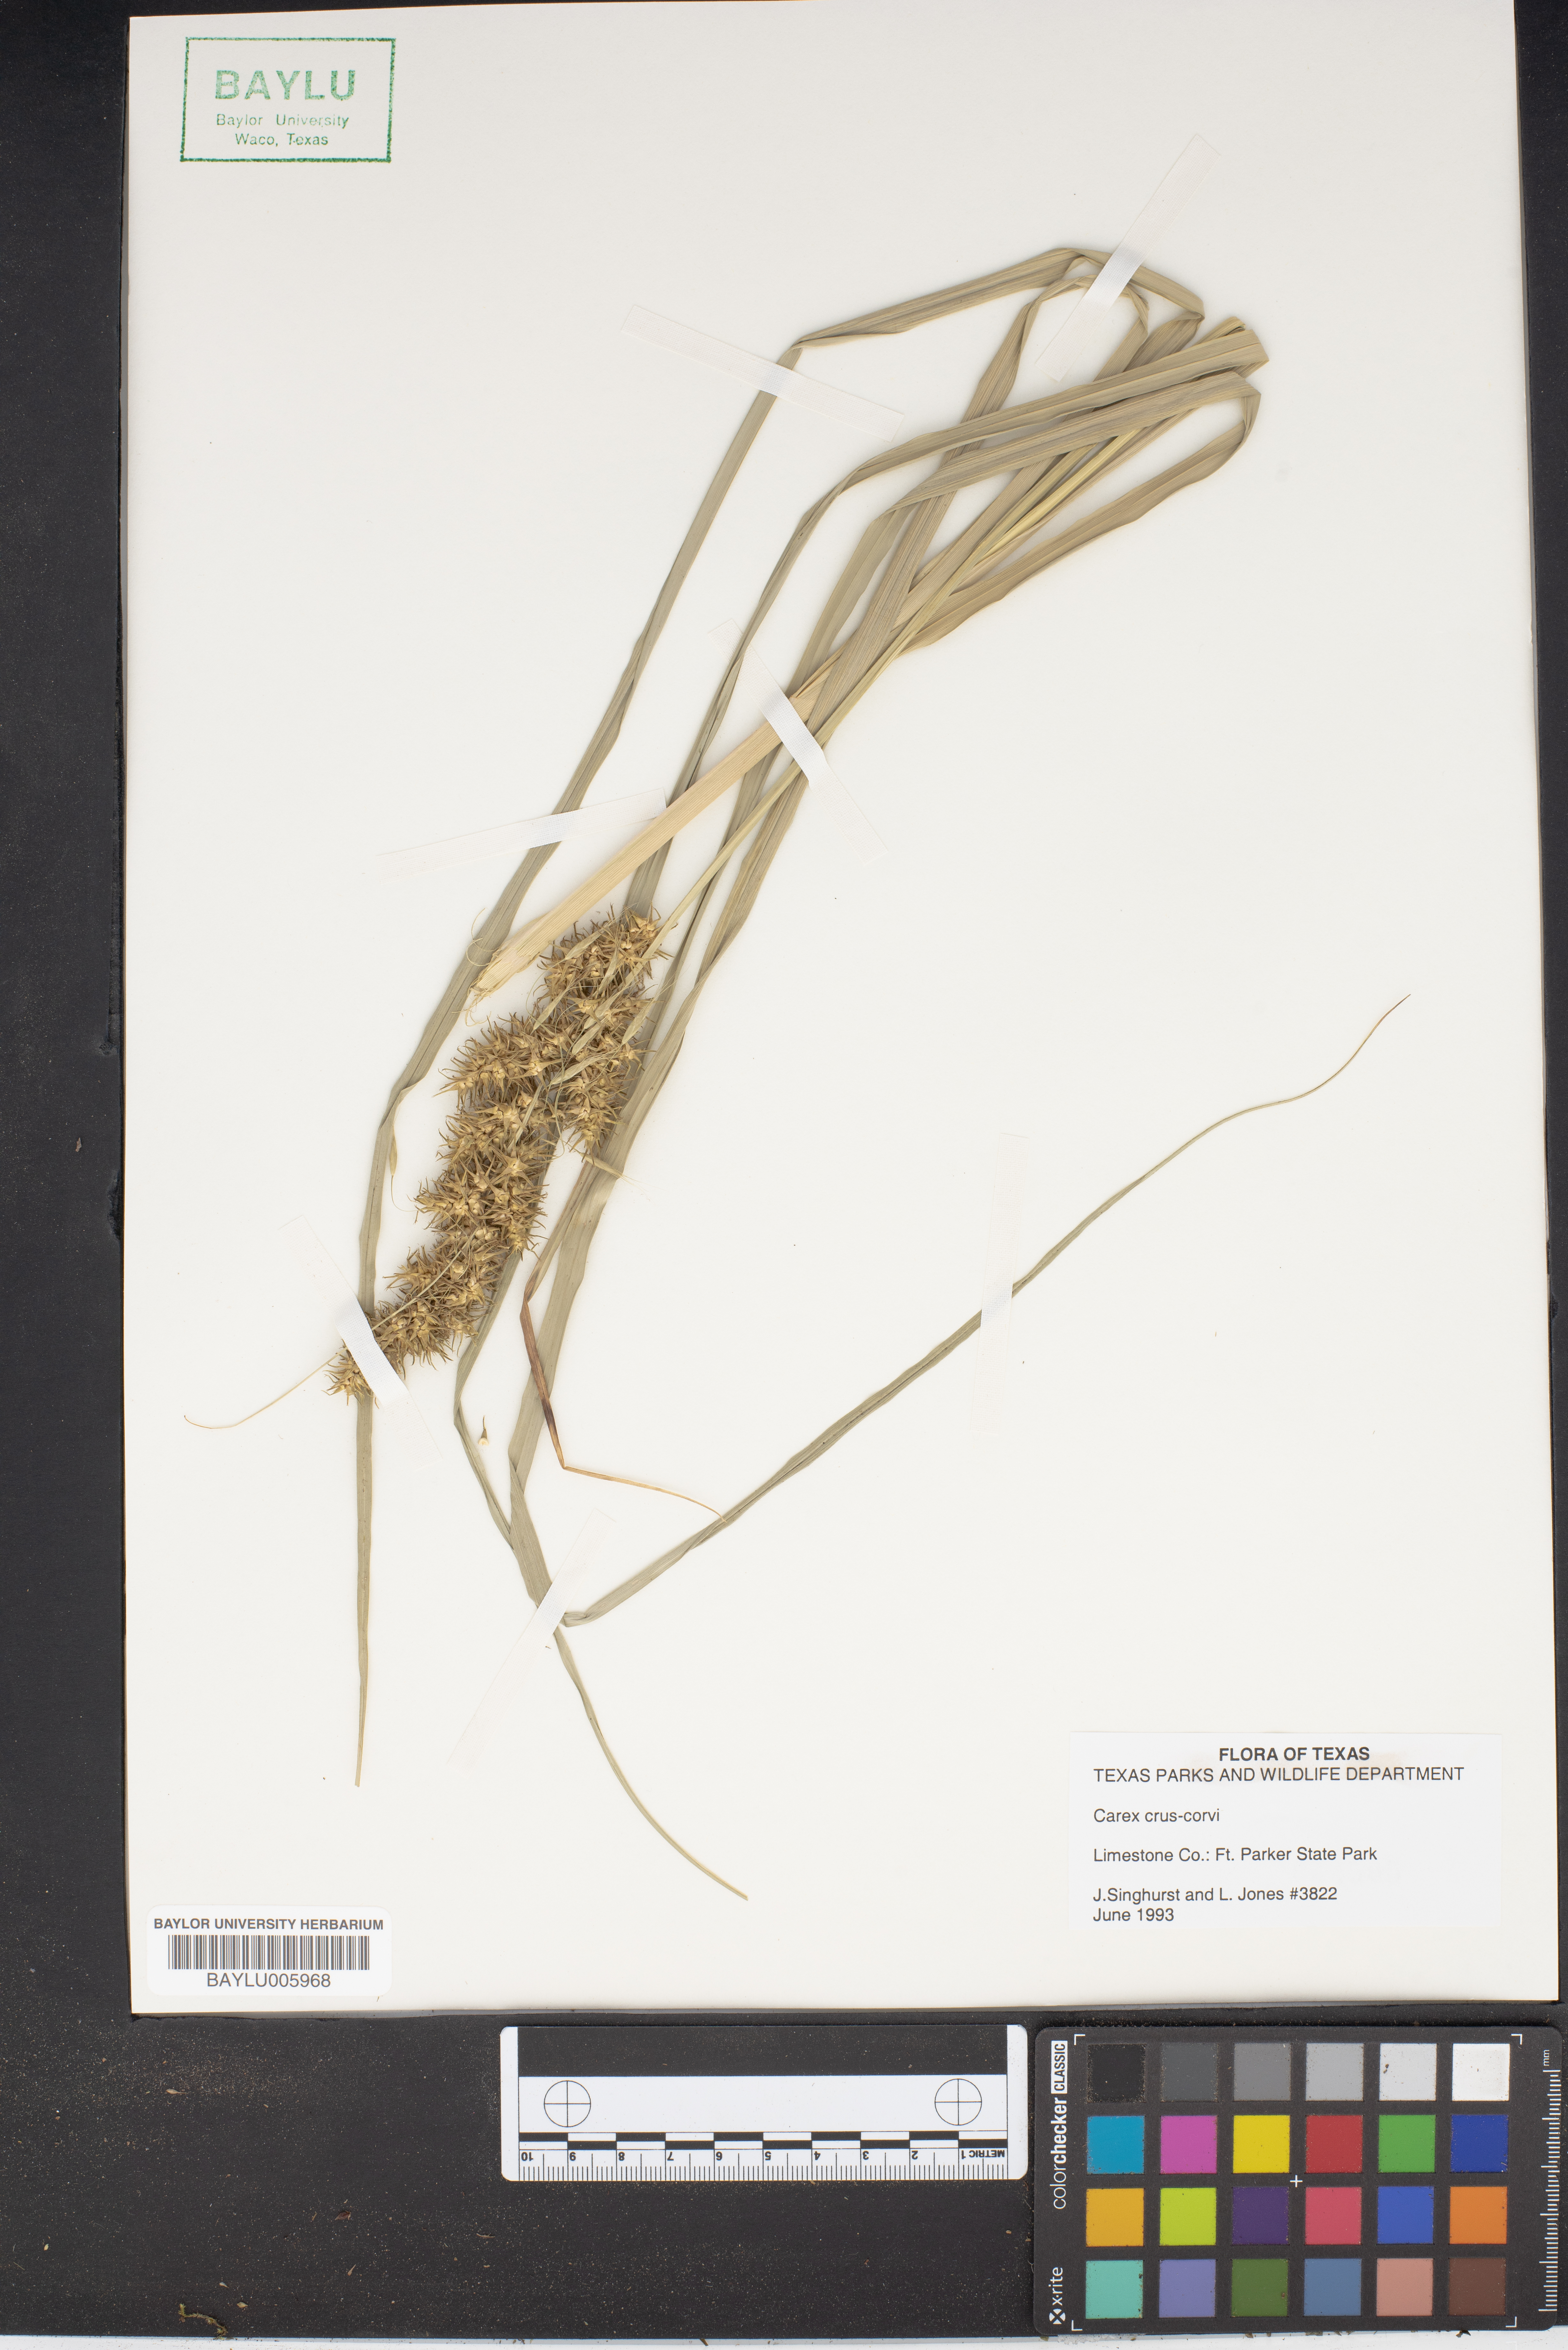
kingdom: Plantae
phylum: Tracheophyta
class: Liliopsida
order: Poales
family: Cyperaceae
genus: Carex
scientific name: Carex crus-corvi
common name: Crow-spur sedge
